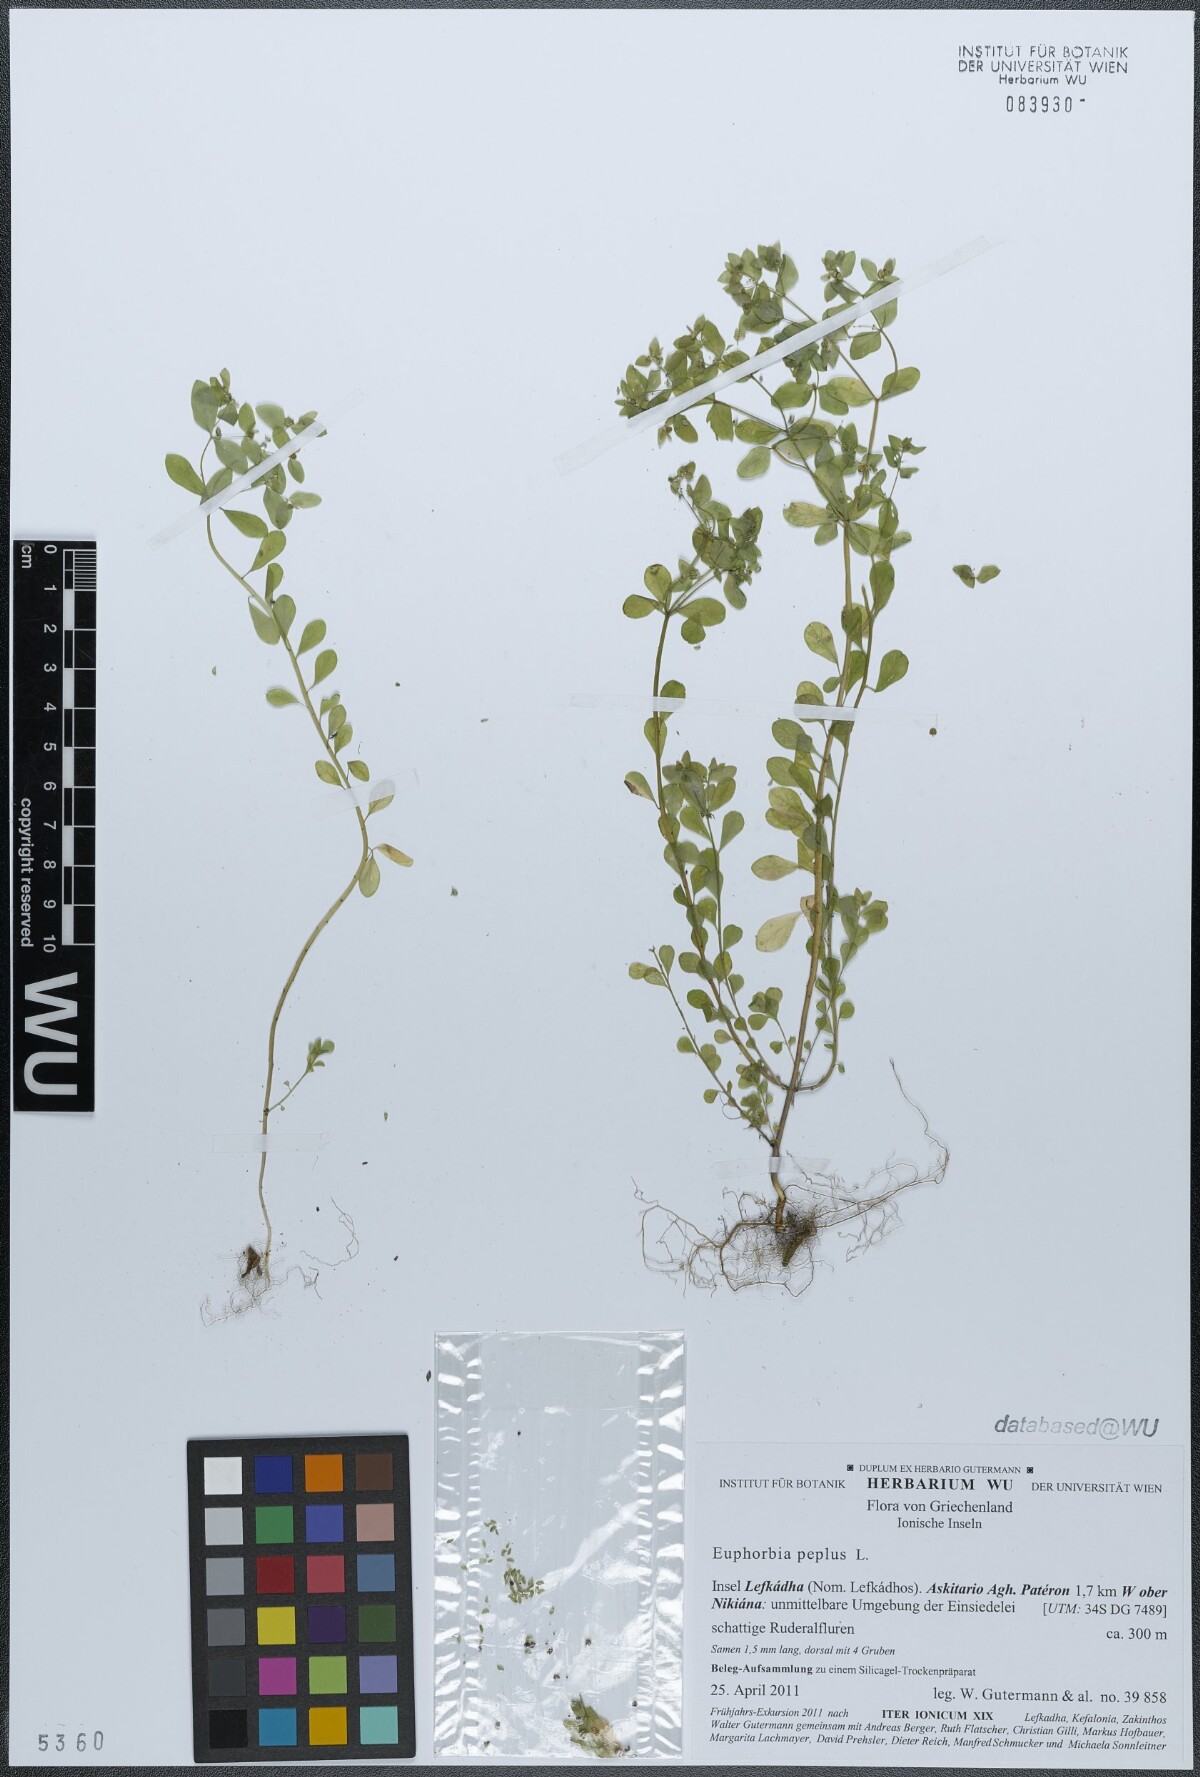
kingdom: Plantae
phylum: Tracheophyta
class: Magnoliopsida
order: Malpighiales
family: Euphorbiaceae
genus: Euphorbia
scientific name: Euphorbia peplus
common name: Petty spurge
